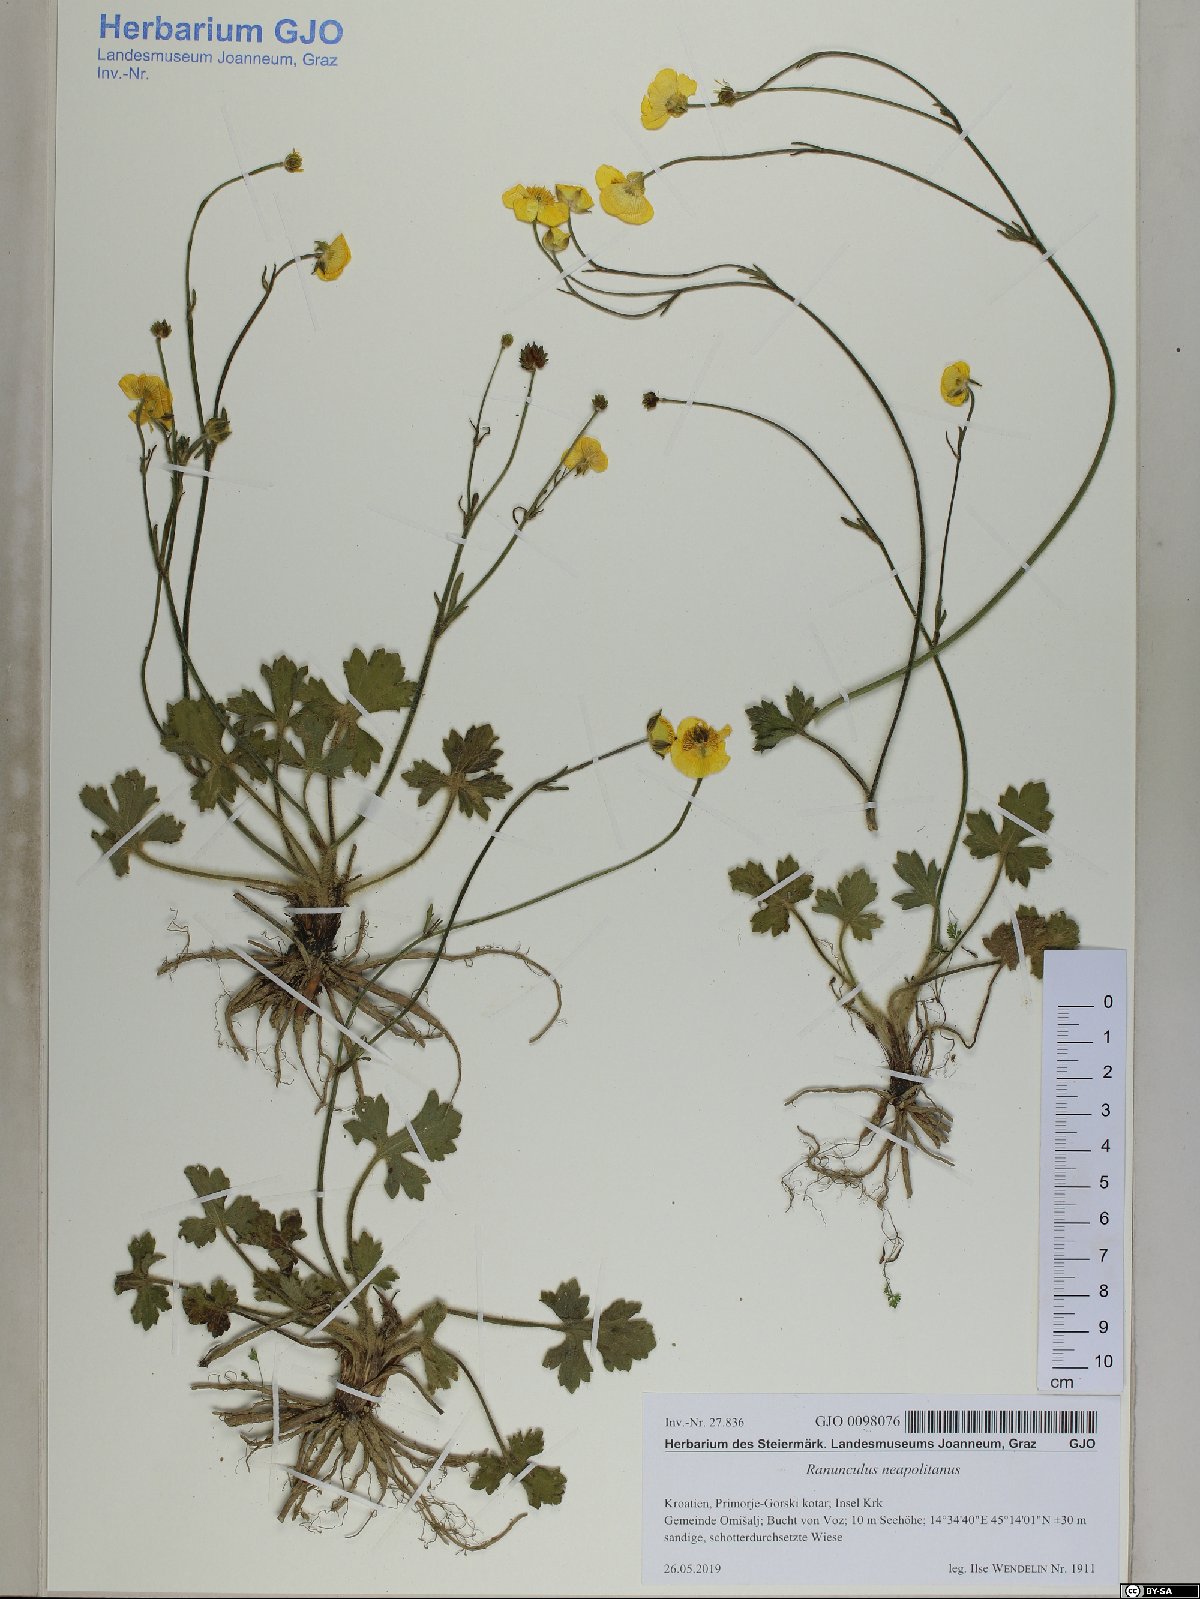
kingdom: Plantae
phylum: Tracheophyta
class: Magnoliopsida
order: Ranunculales
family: Ranunculaceae
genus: Ranunculus
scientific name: Ranunculus neapolitanus
